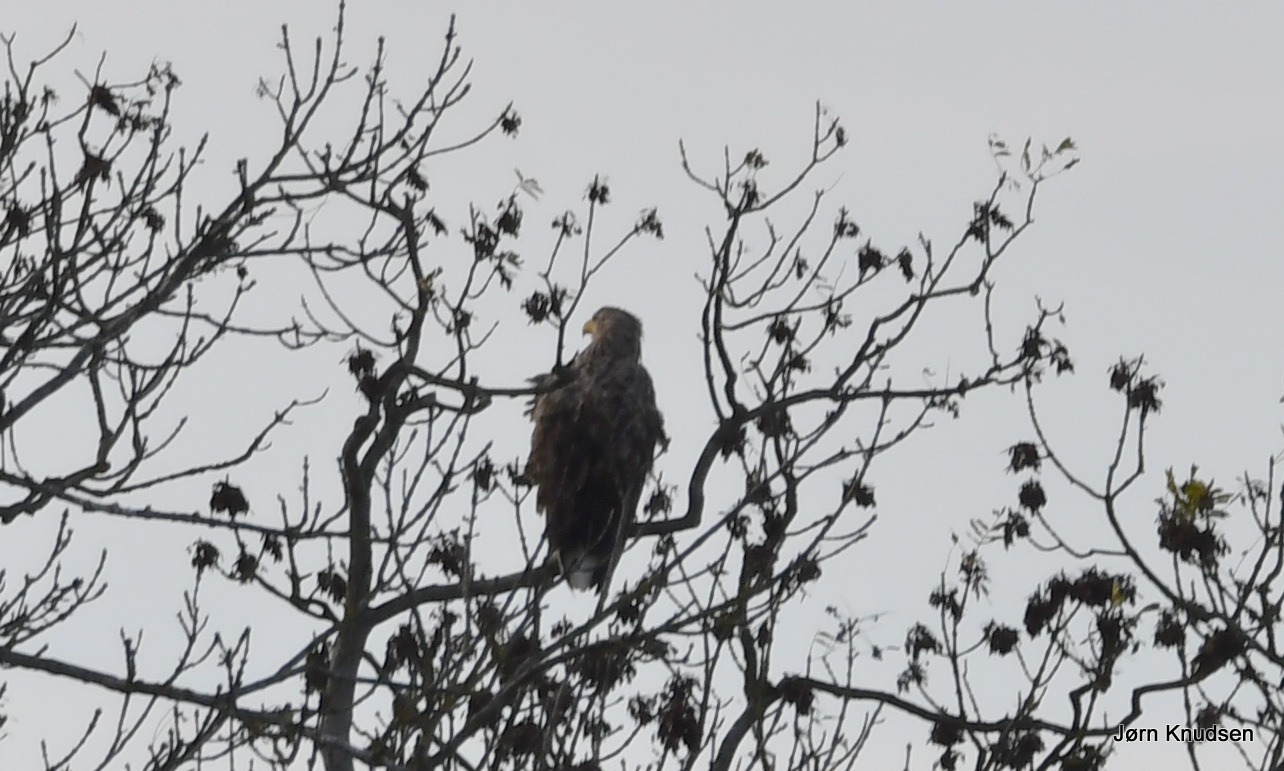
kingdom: Animalia
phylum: Chordata
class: Aves
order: Accipitriformes
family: Accipitridae
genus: Haliaeetus
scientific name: Haliaeetus albicilla
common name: Havørn
